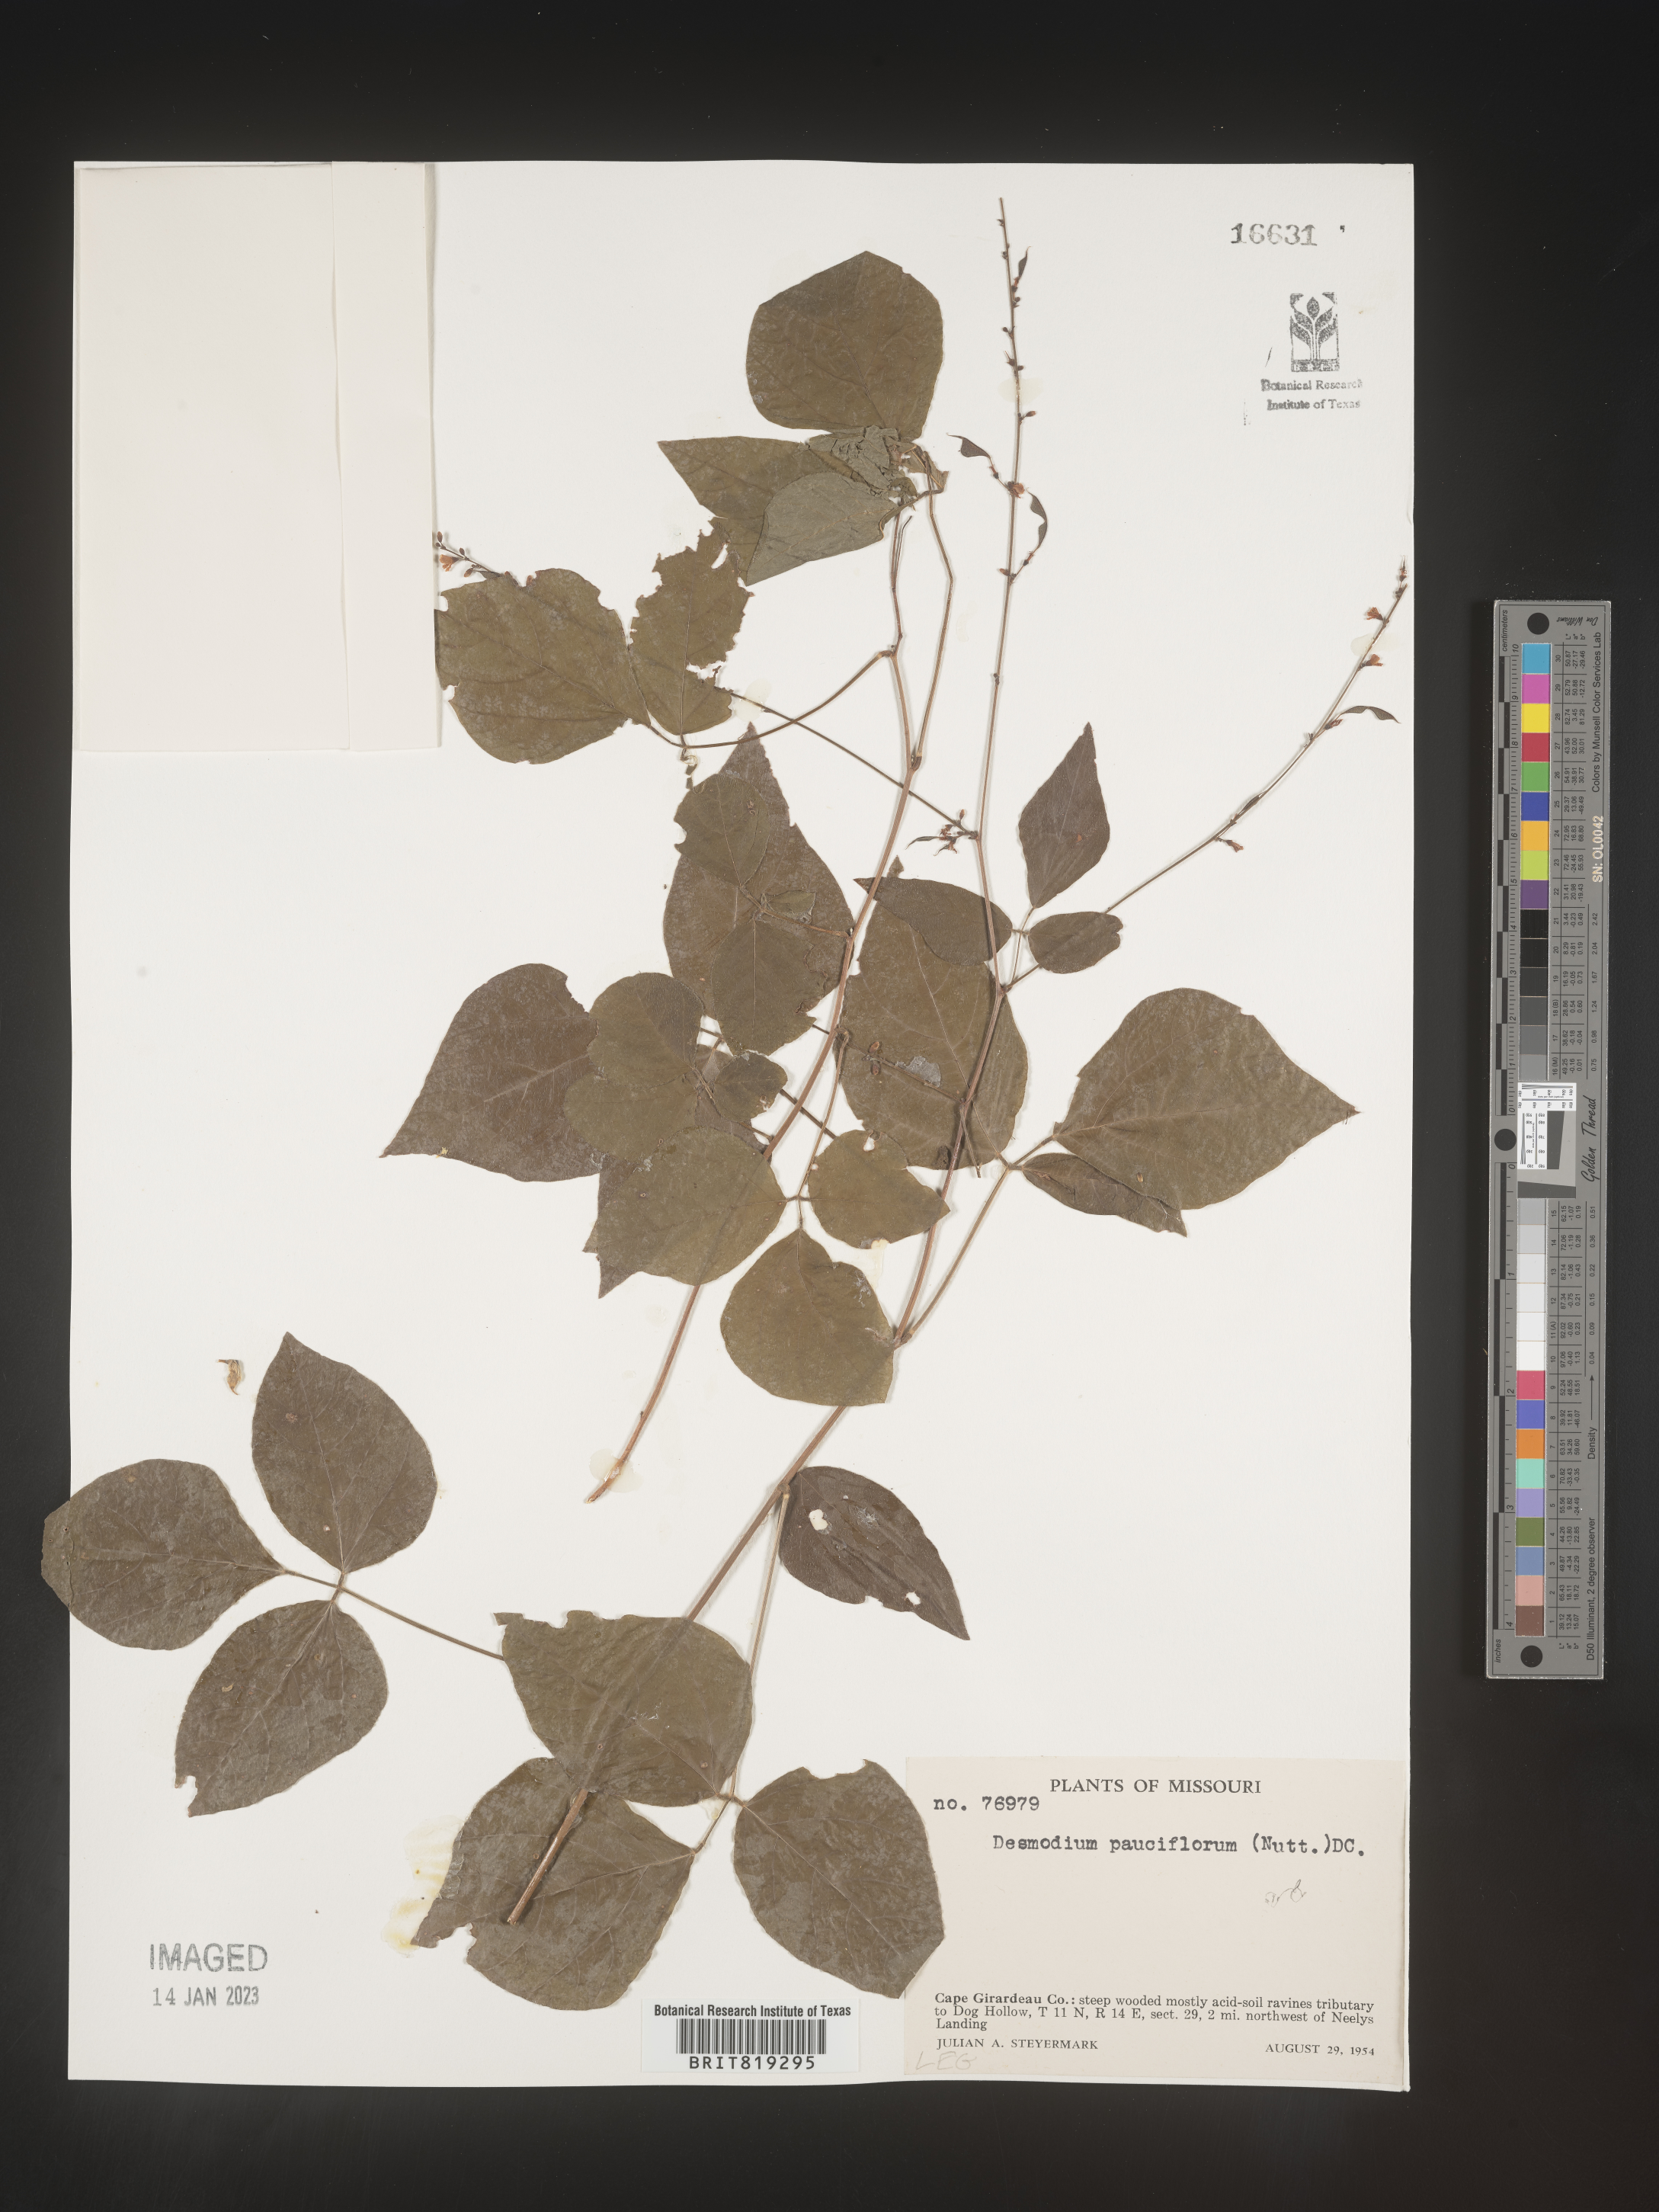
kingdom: Plantae
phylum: Tracheophyta
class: Magnoliopsida
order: Fabales
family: Fabaceae
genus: Hylodesmum
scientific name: Hylodesmum pauciflorum
